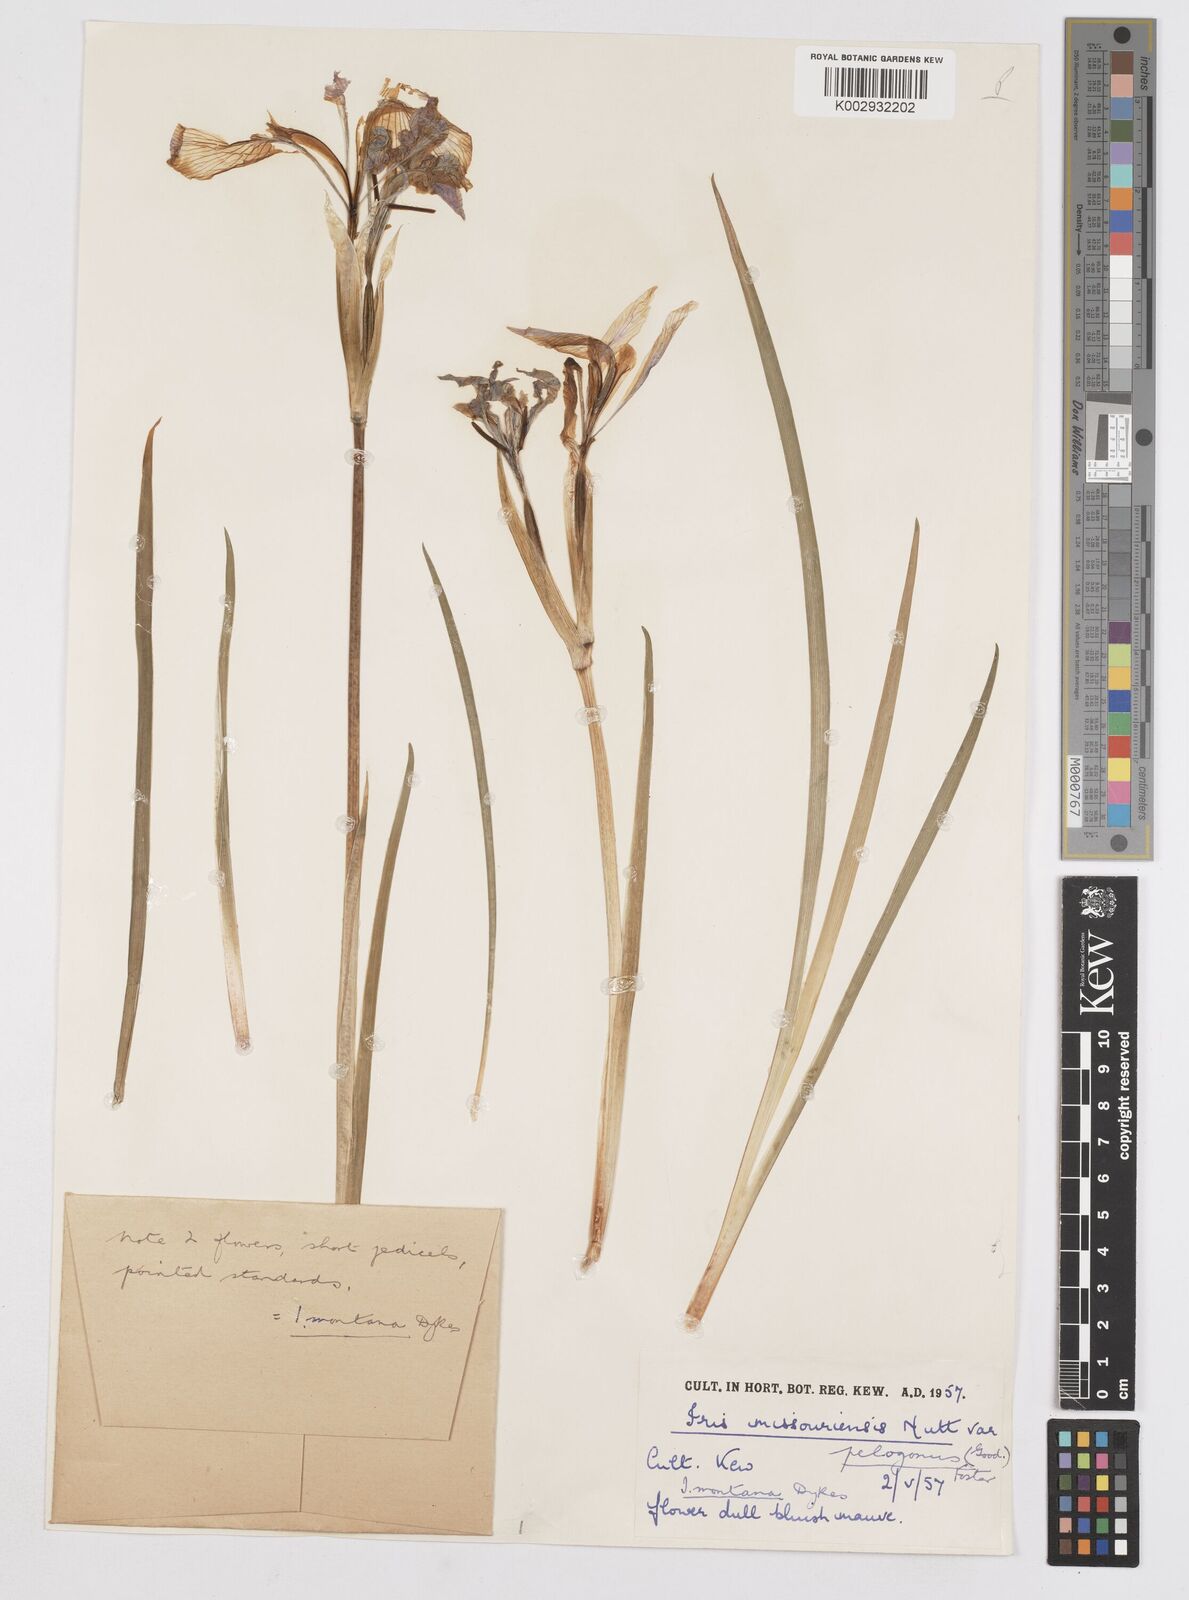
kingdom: Plantae
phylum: Tracheophyta
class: Liliopsida
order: Asparagales
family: Iridaceae
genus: Iris
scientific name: Iris missouriensis
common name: Rocky mountain iris
